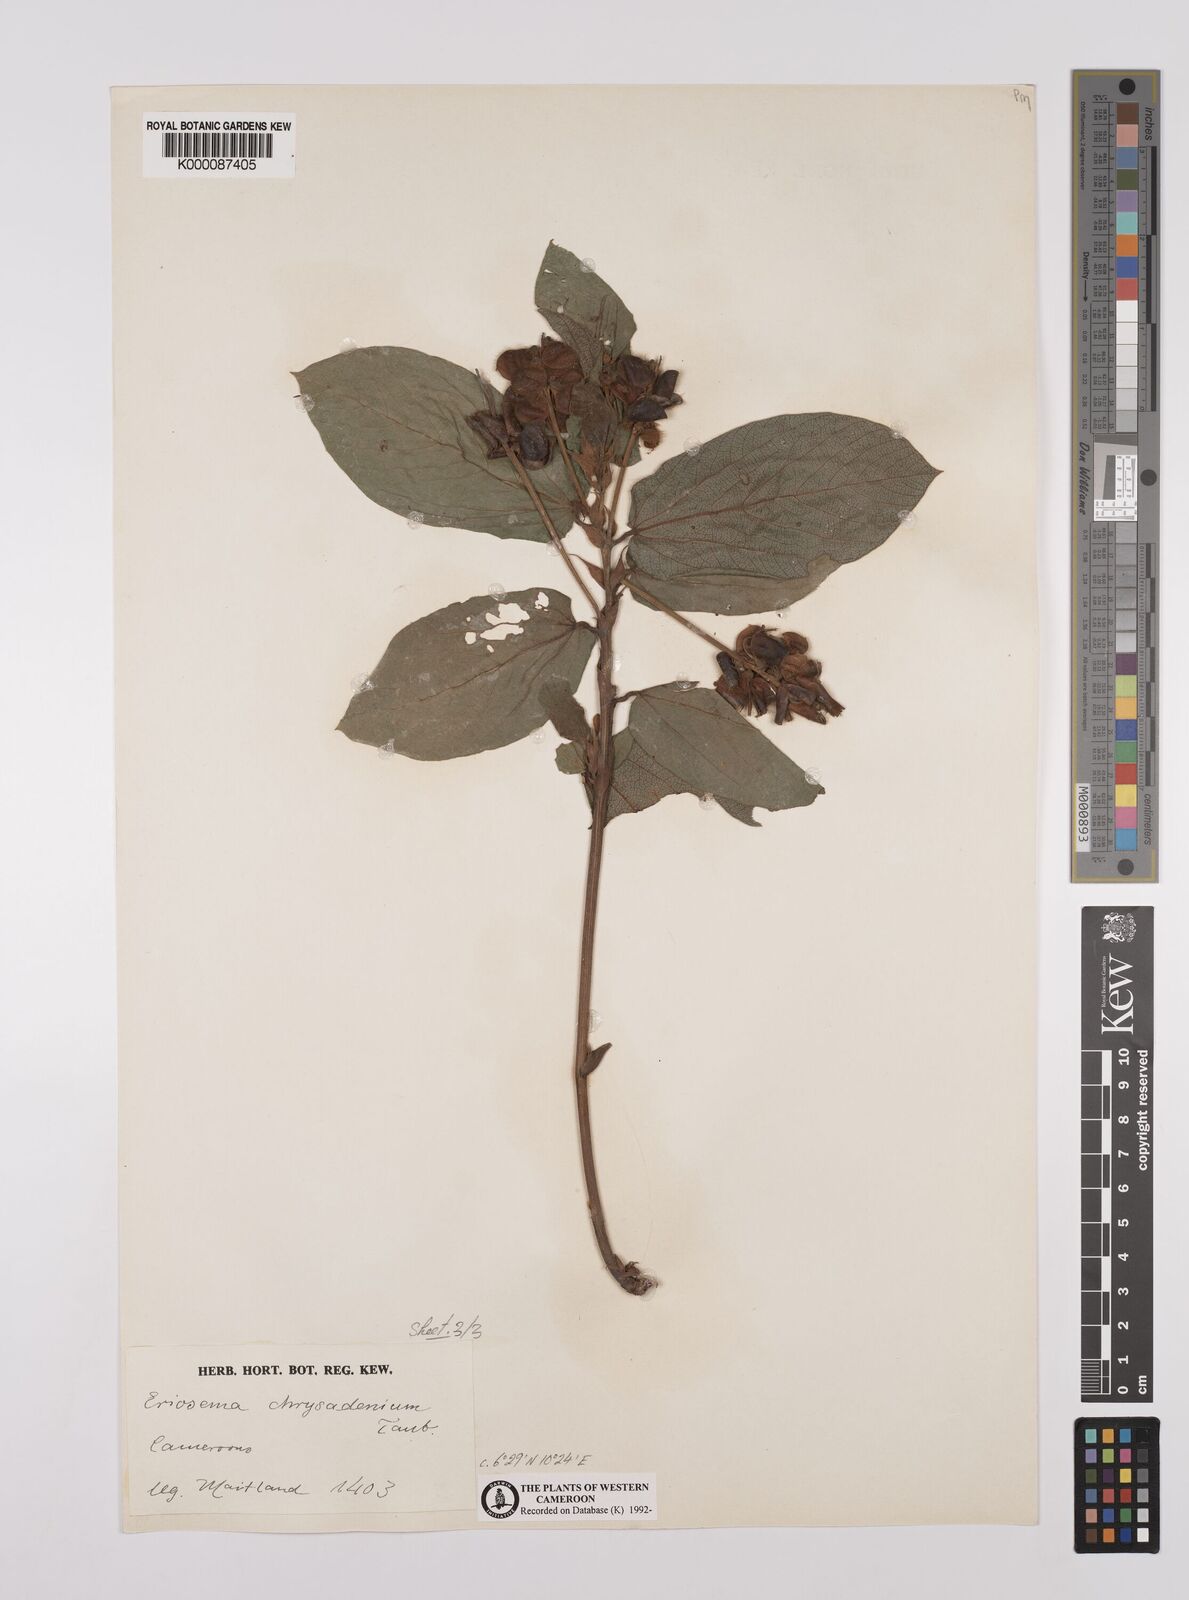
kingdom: Plantae
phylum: Tracheophyta
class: Magnoliopsida
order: Fabales
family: Fabaceae
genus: Eriosema
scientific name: Eriosema chrysadenium
